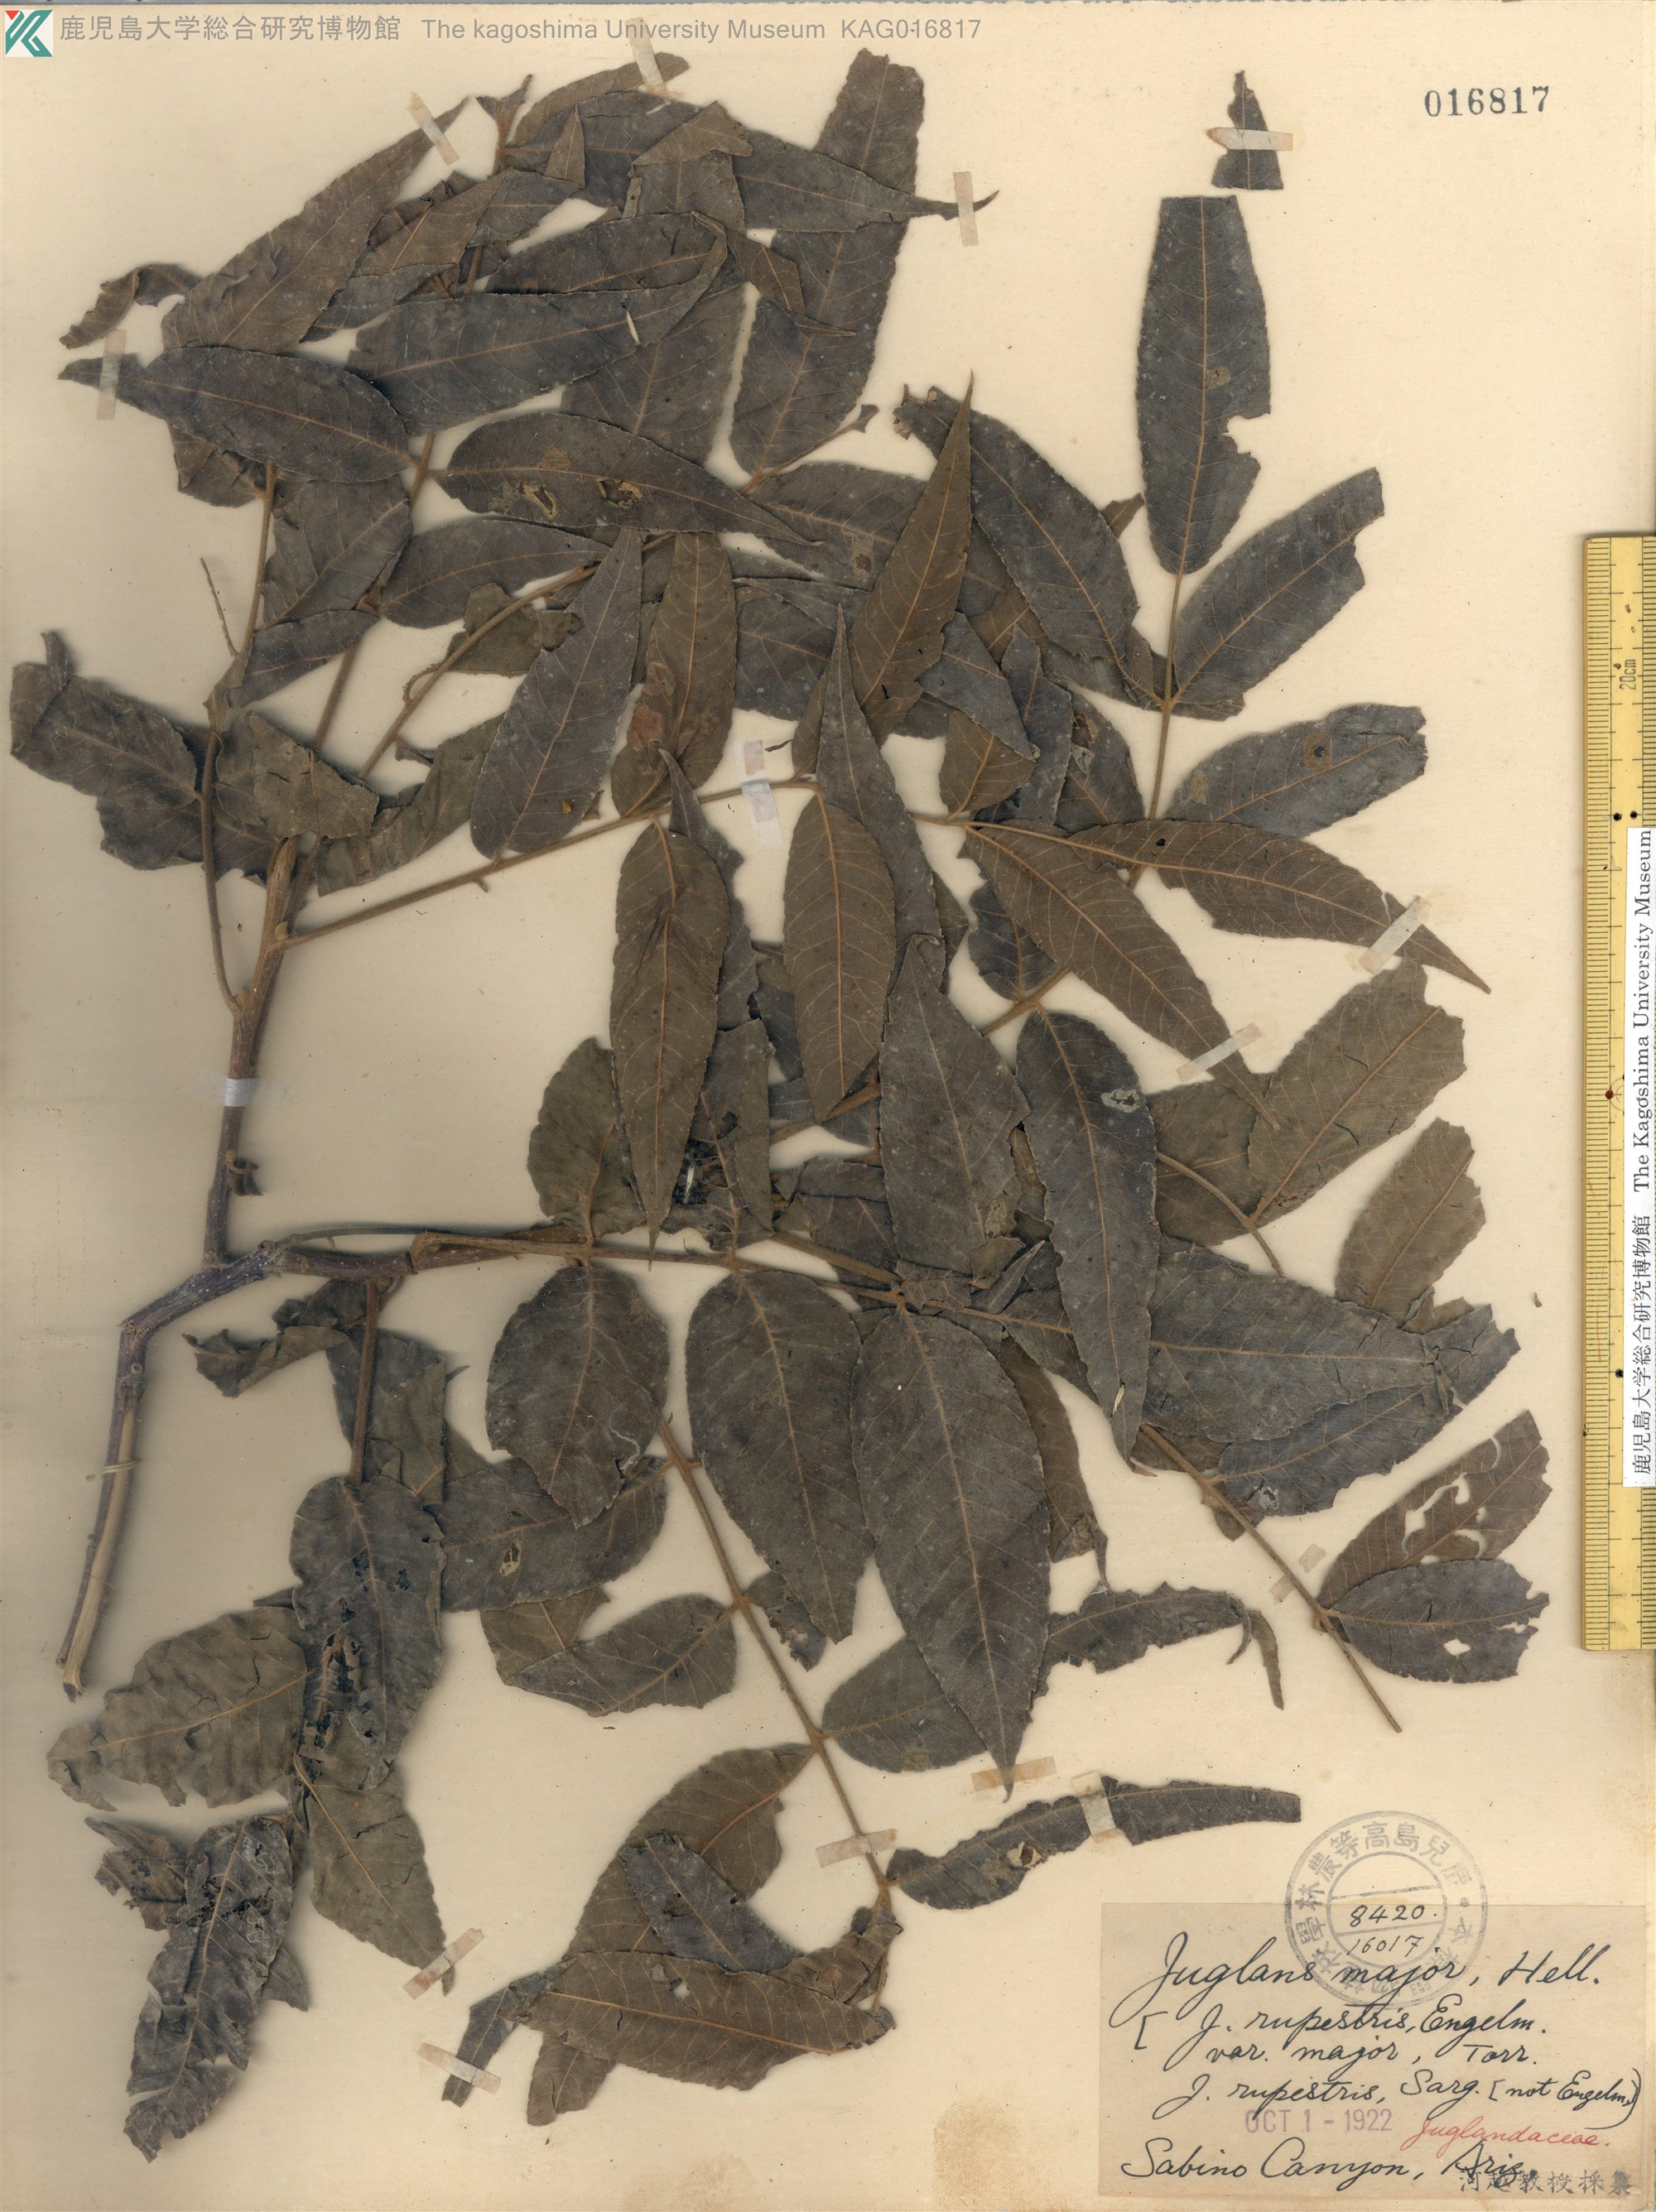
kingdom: Plantae
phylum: Tracheophyta
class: Magnoliopsida
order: Fagales
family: Juglandaceae
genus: Juglans
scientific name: Juglans major
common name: Arizona walnut
